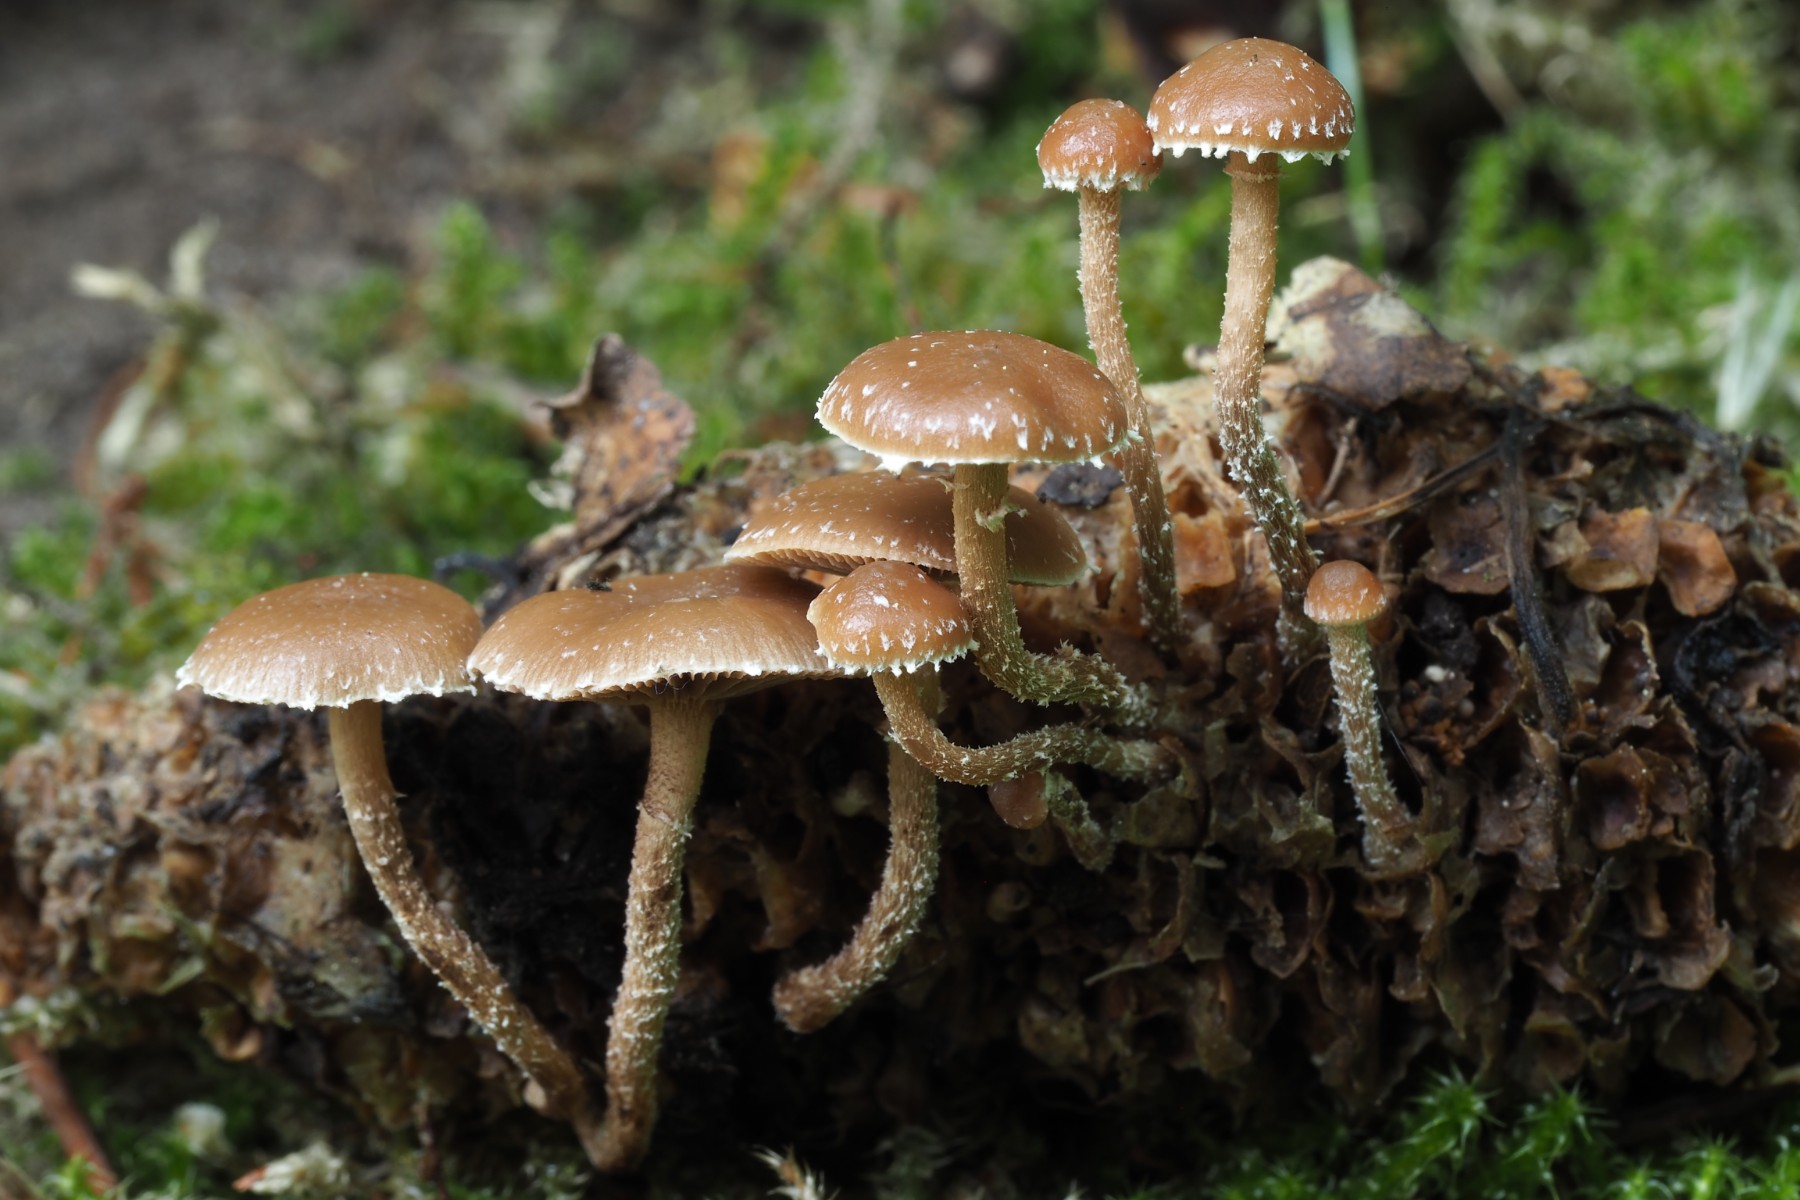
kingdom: Fungi
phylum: Basidiomycota
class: Agaricomycetes
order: Agaricales
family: Strophariaceae
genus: Deconica
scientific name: Deconica crobula
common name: træflis-stråhat
